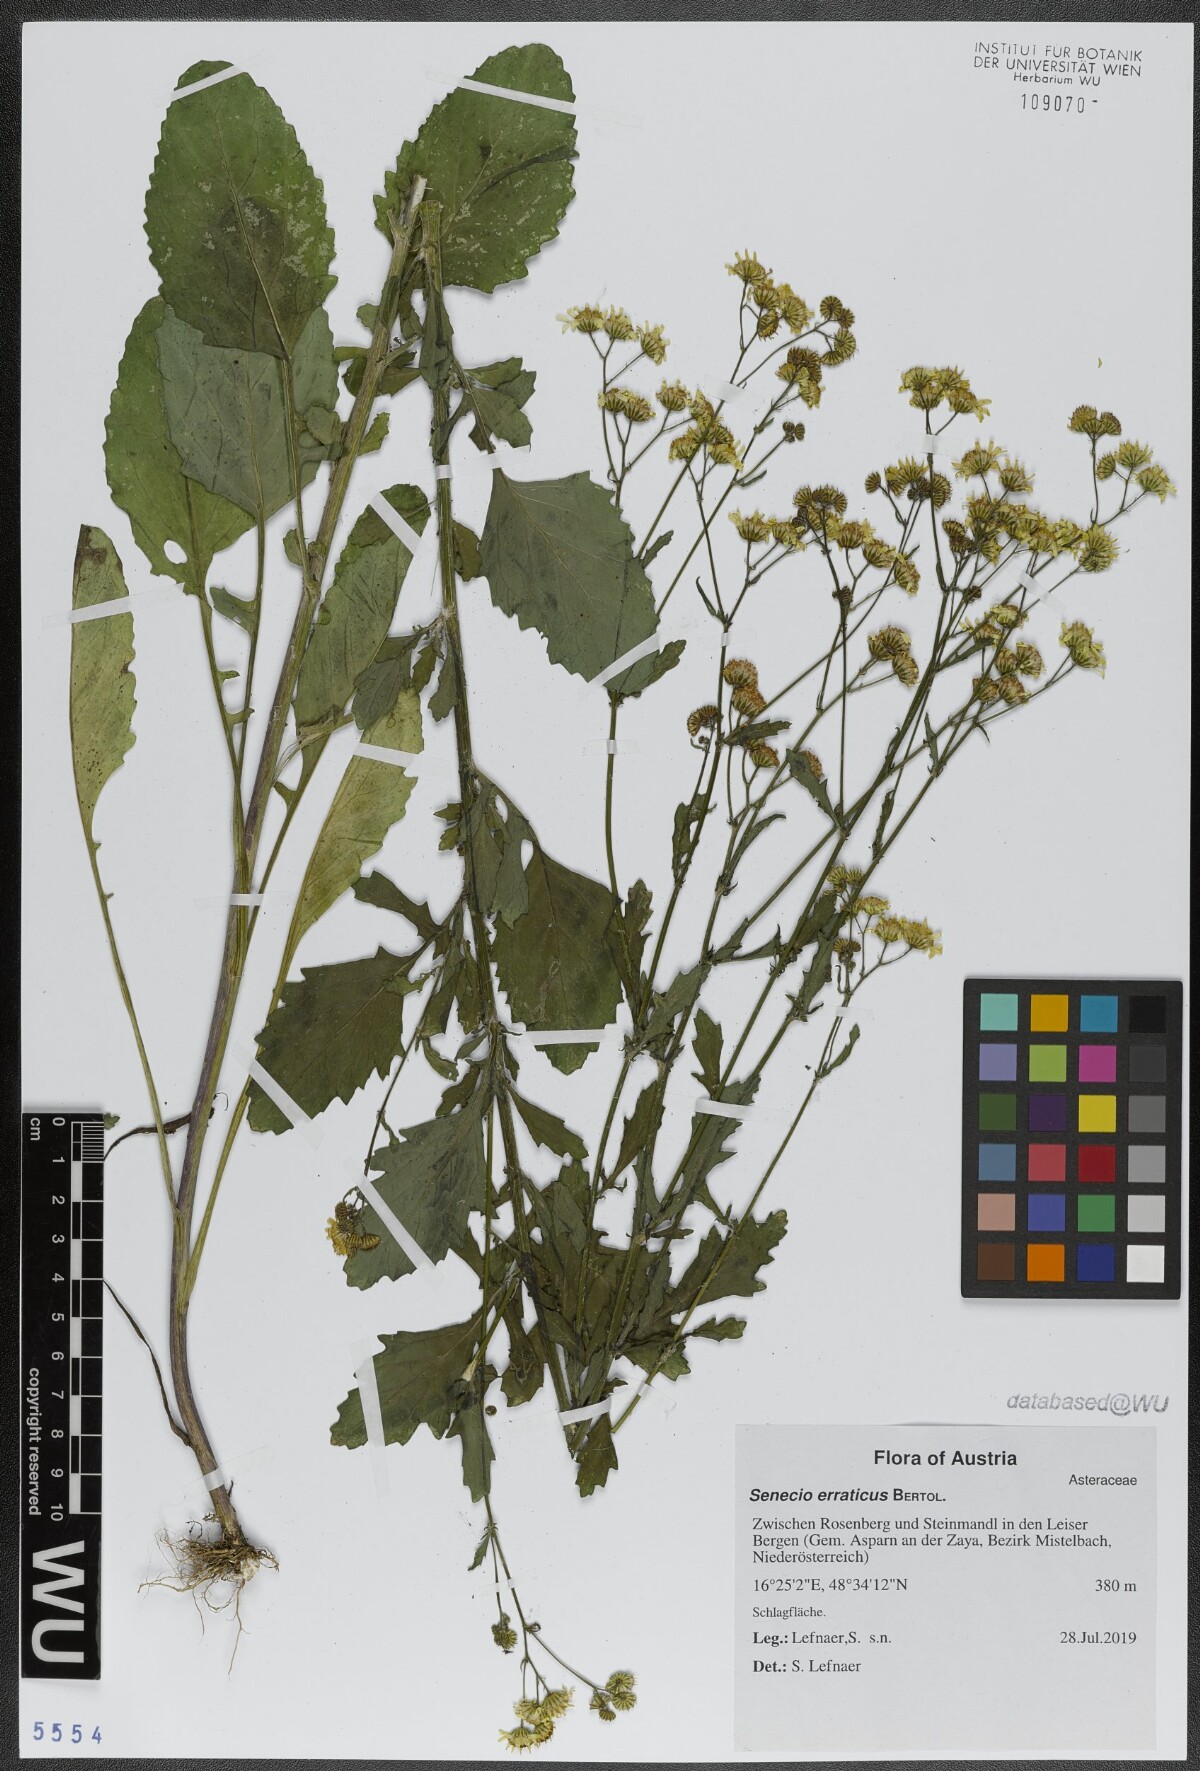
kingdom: Plantae
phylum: Tracheophyta
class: Magnoliopsida
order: Asterales
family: Asteraceae
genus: Jacobaea
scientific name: Jacobaea erratica
